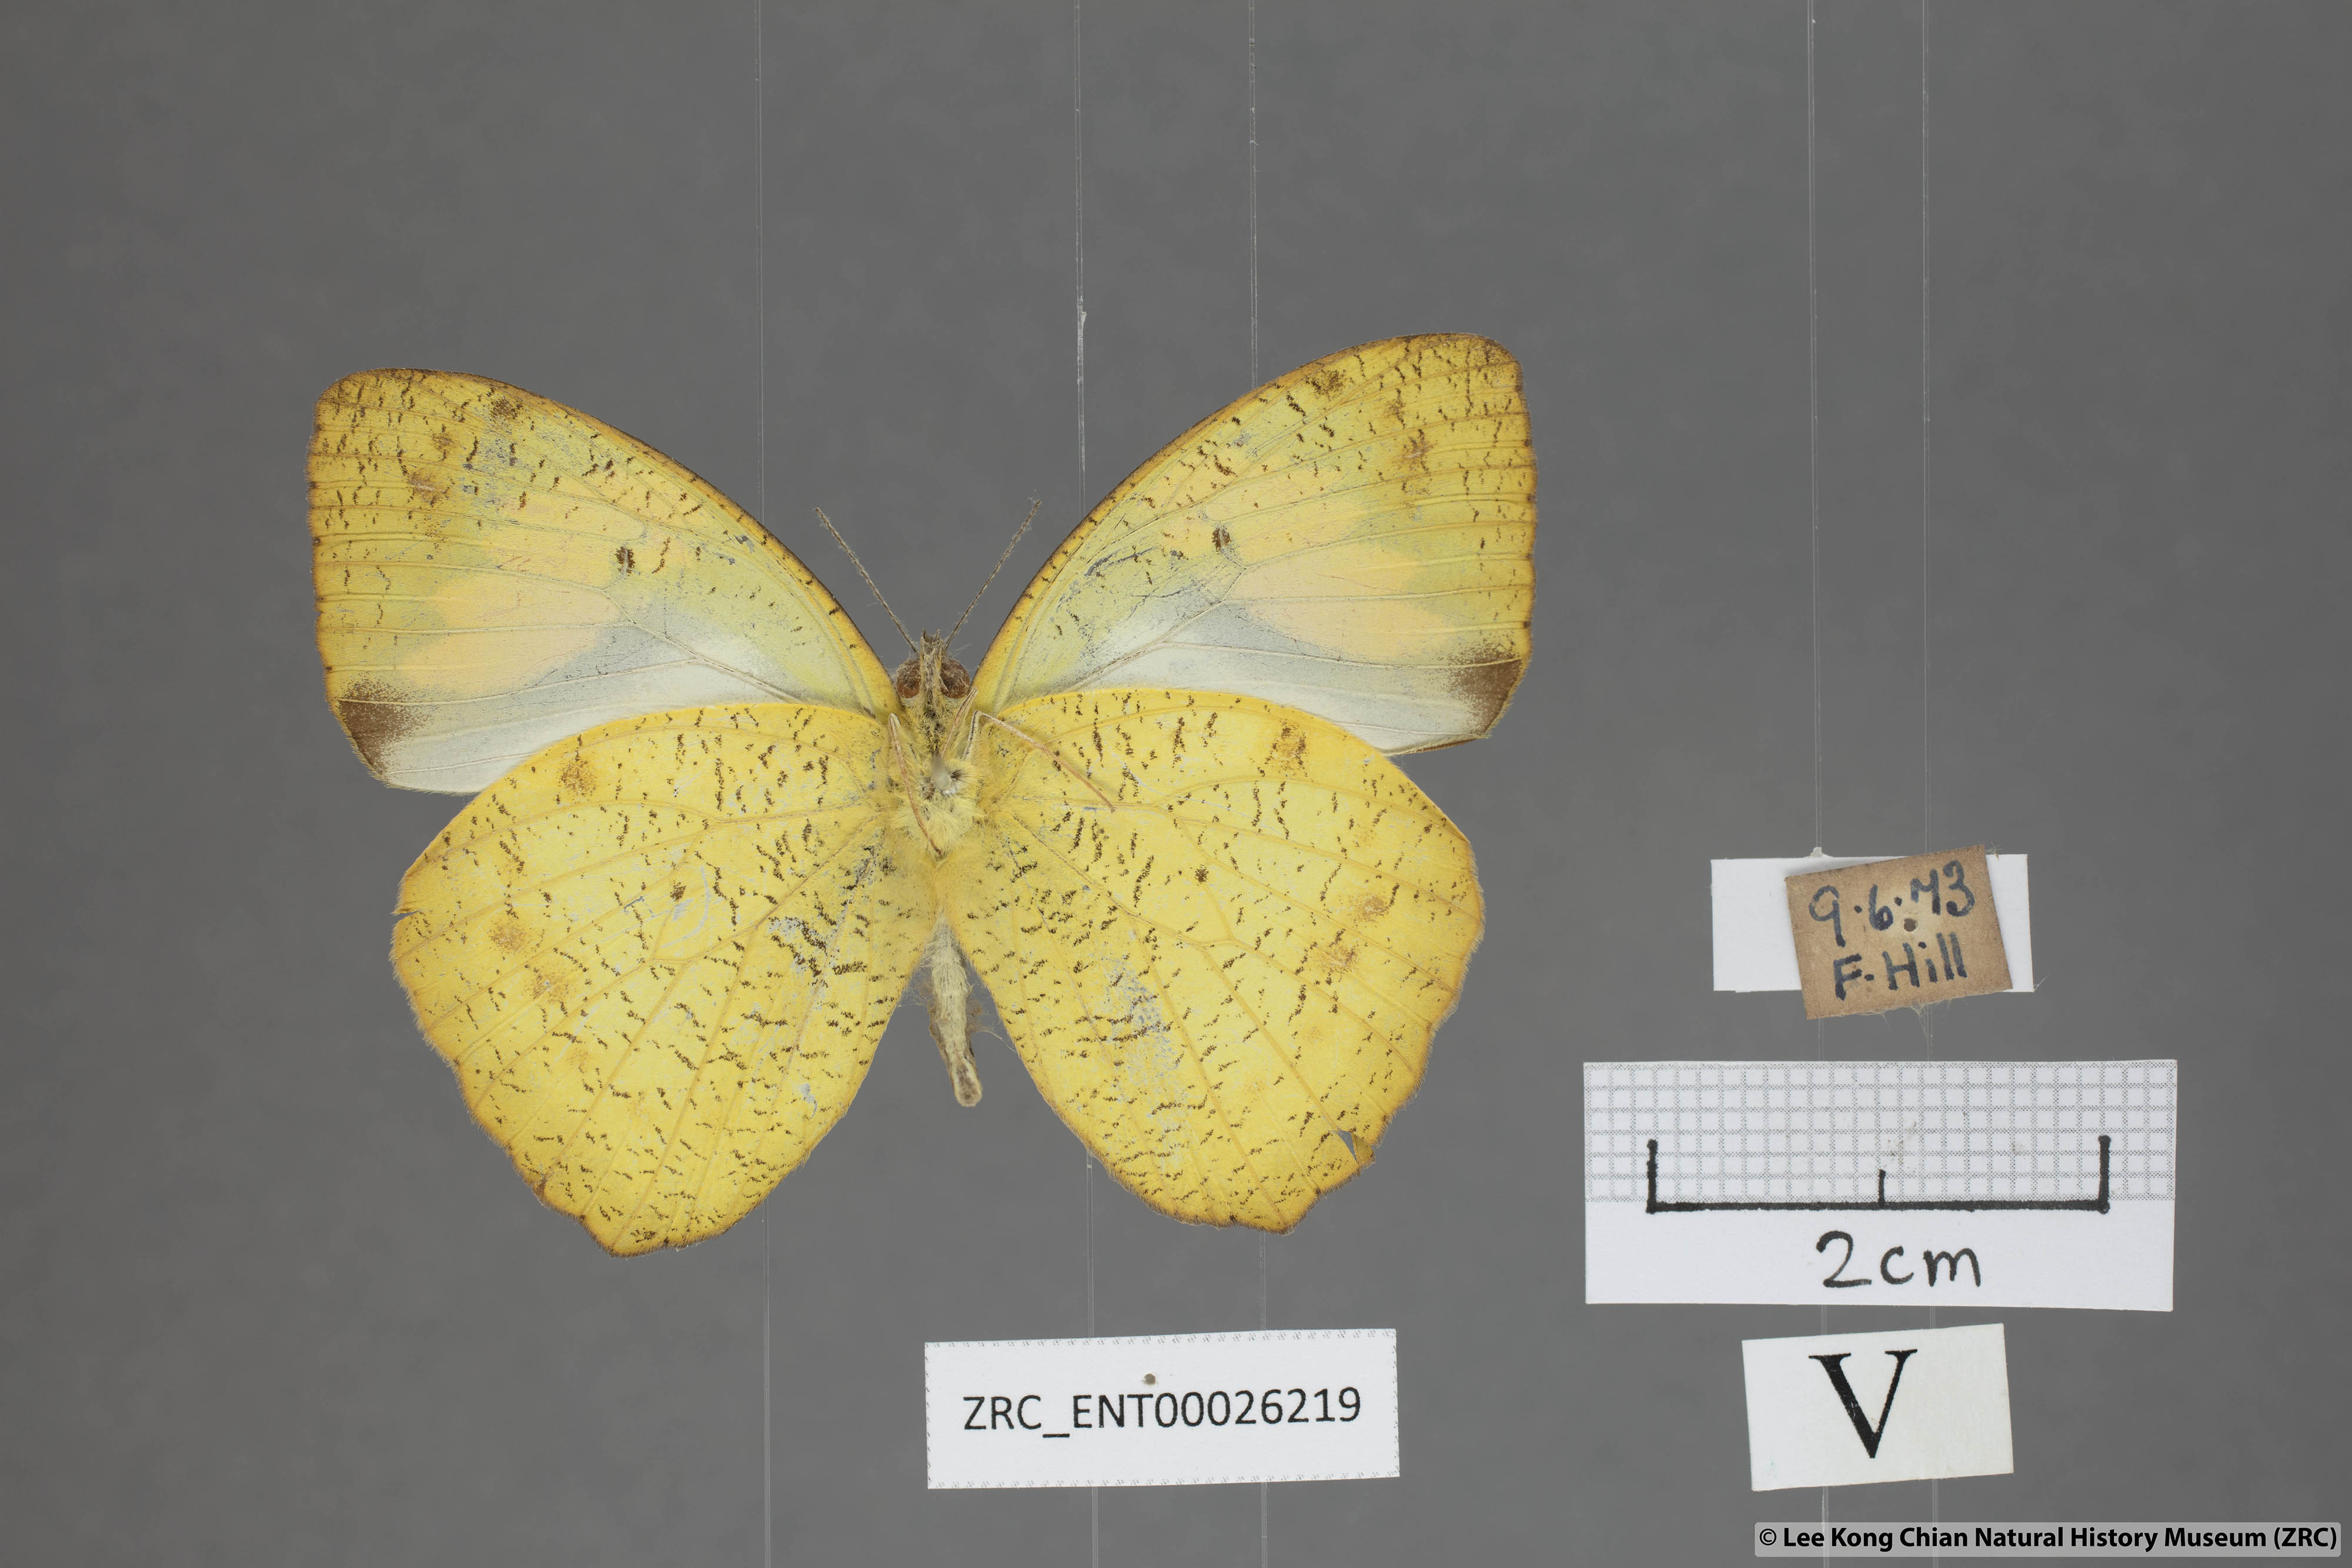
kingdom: Animalia
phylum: Arthropoda
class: Insecta
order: Lepidoptera
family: Pieridae
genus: Ixias
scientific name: Ixias pyrene
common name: Yellow orange tip
